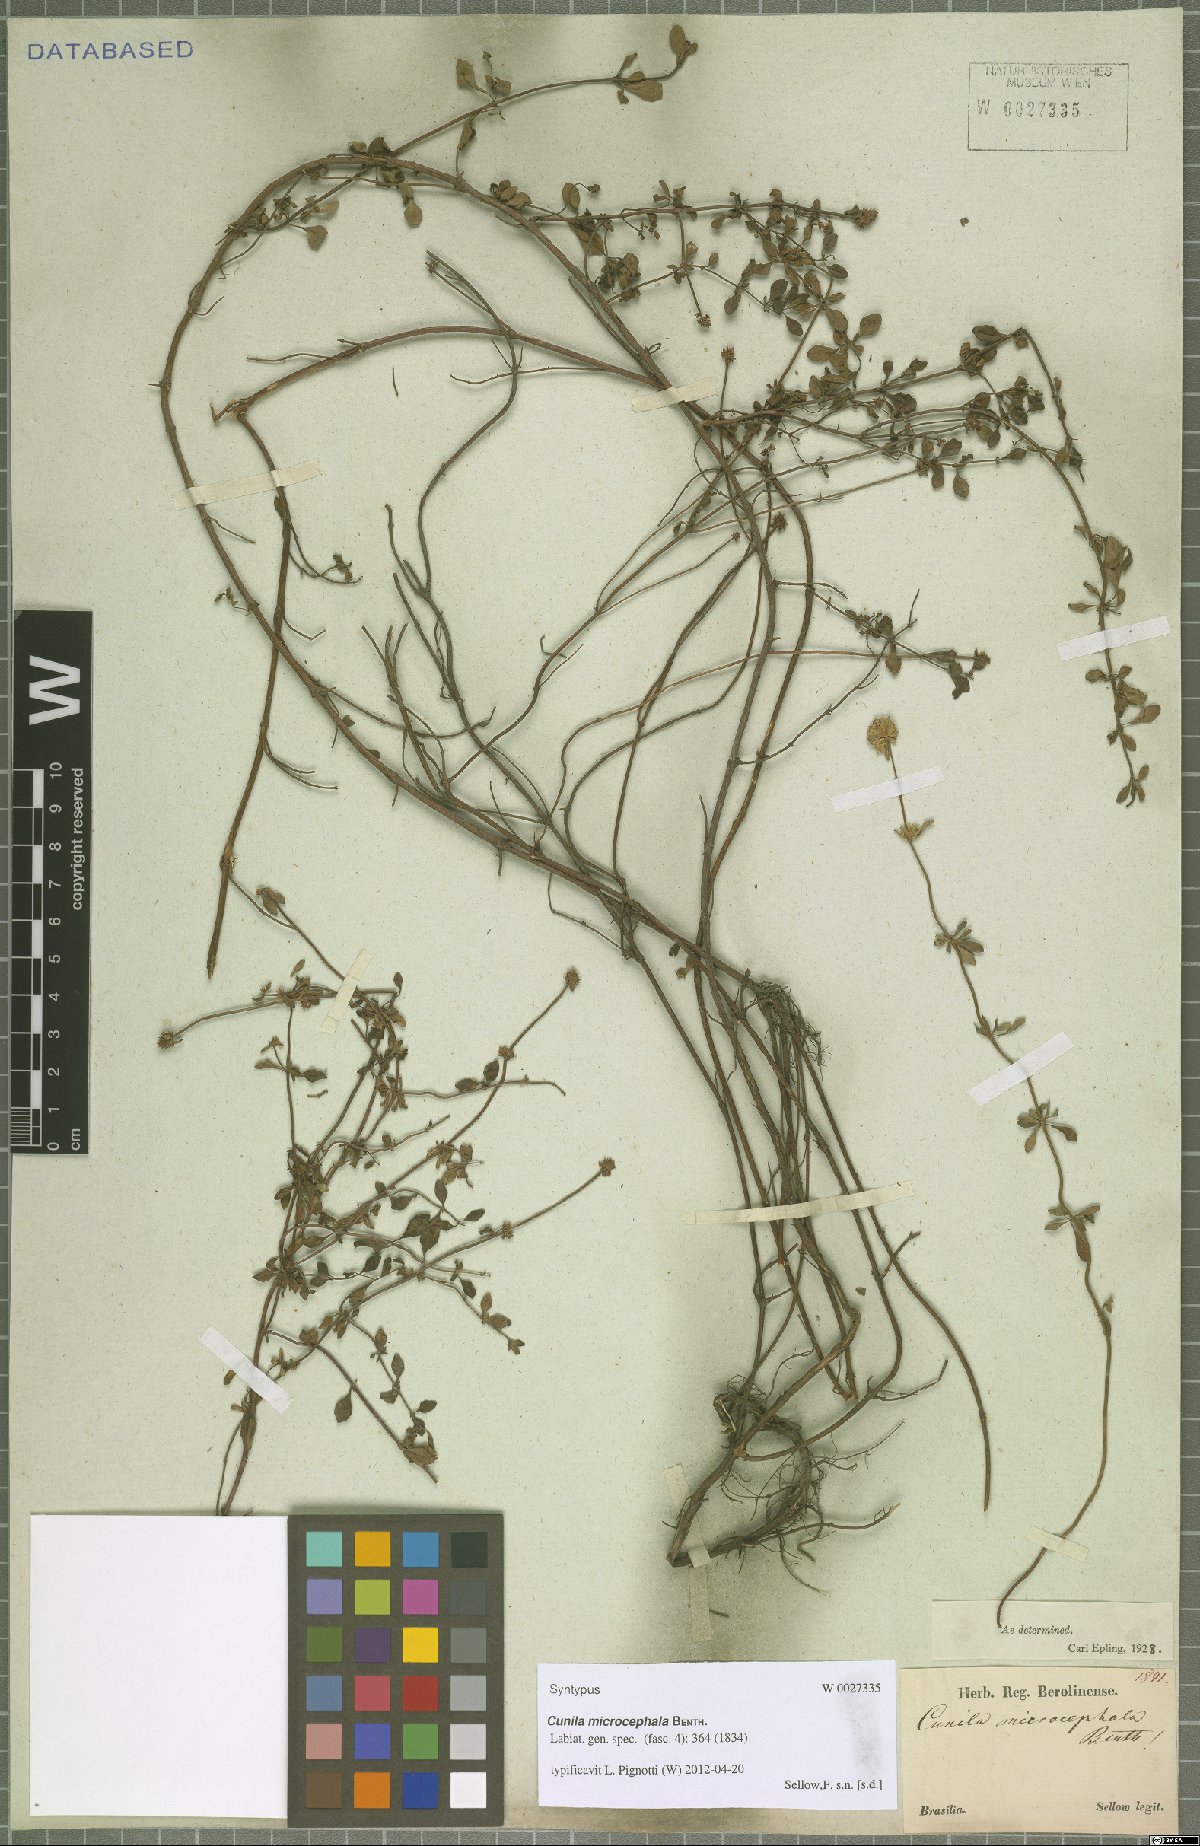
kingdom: Plantae
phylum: Tracheophyta
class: Magnoliopsida
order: Lamiales
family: Lamiaceae
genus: Cunila
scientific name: Cunila microcephala
